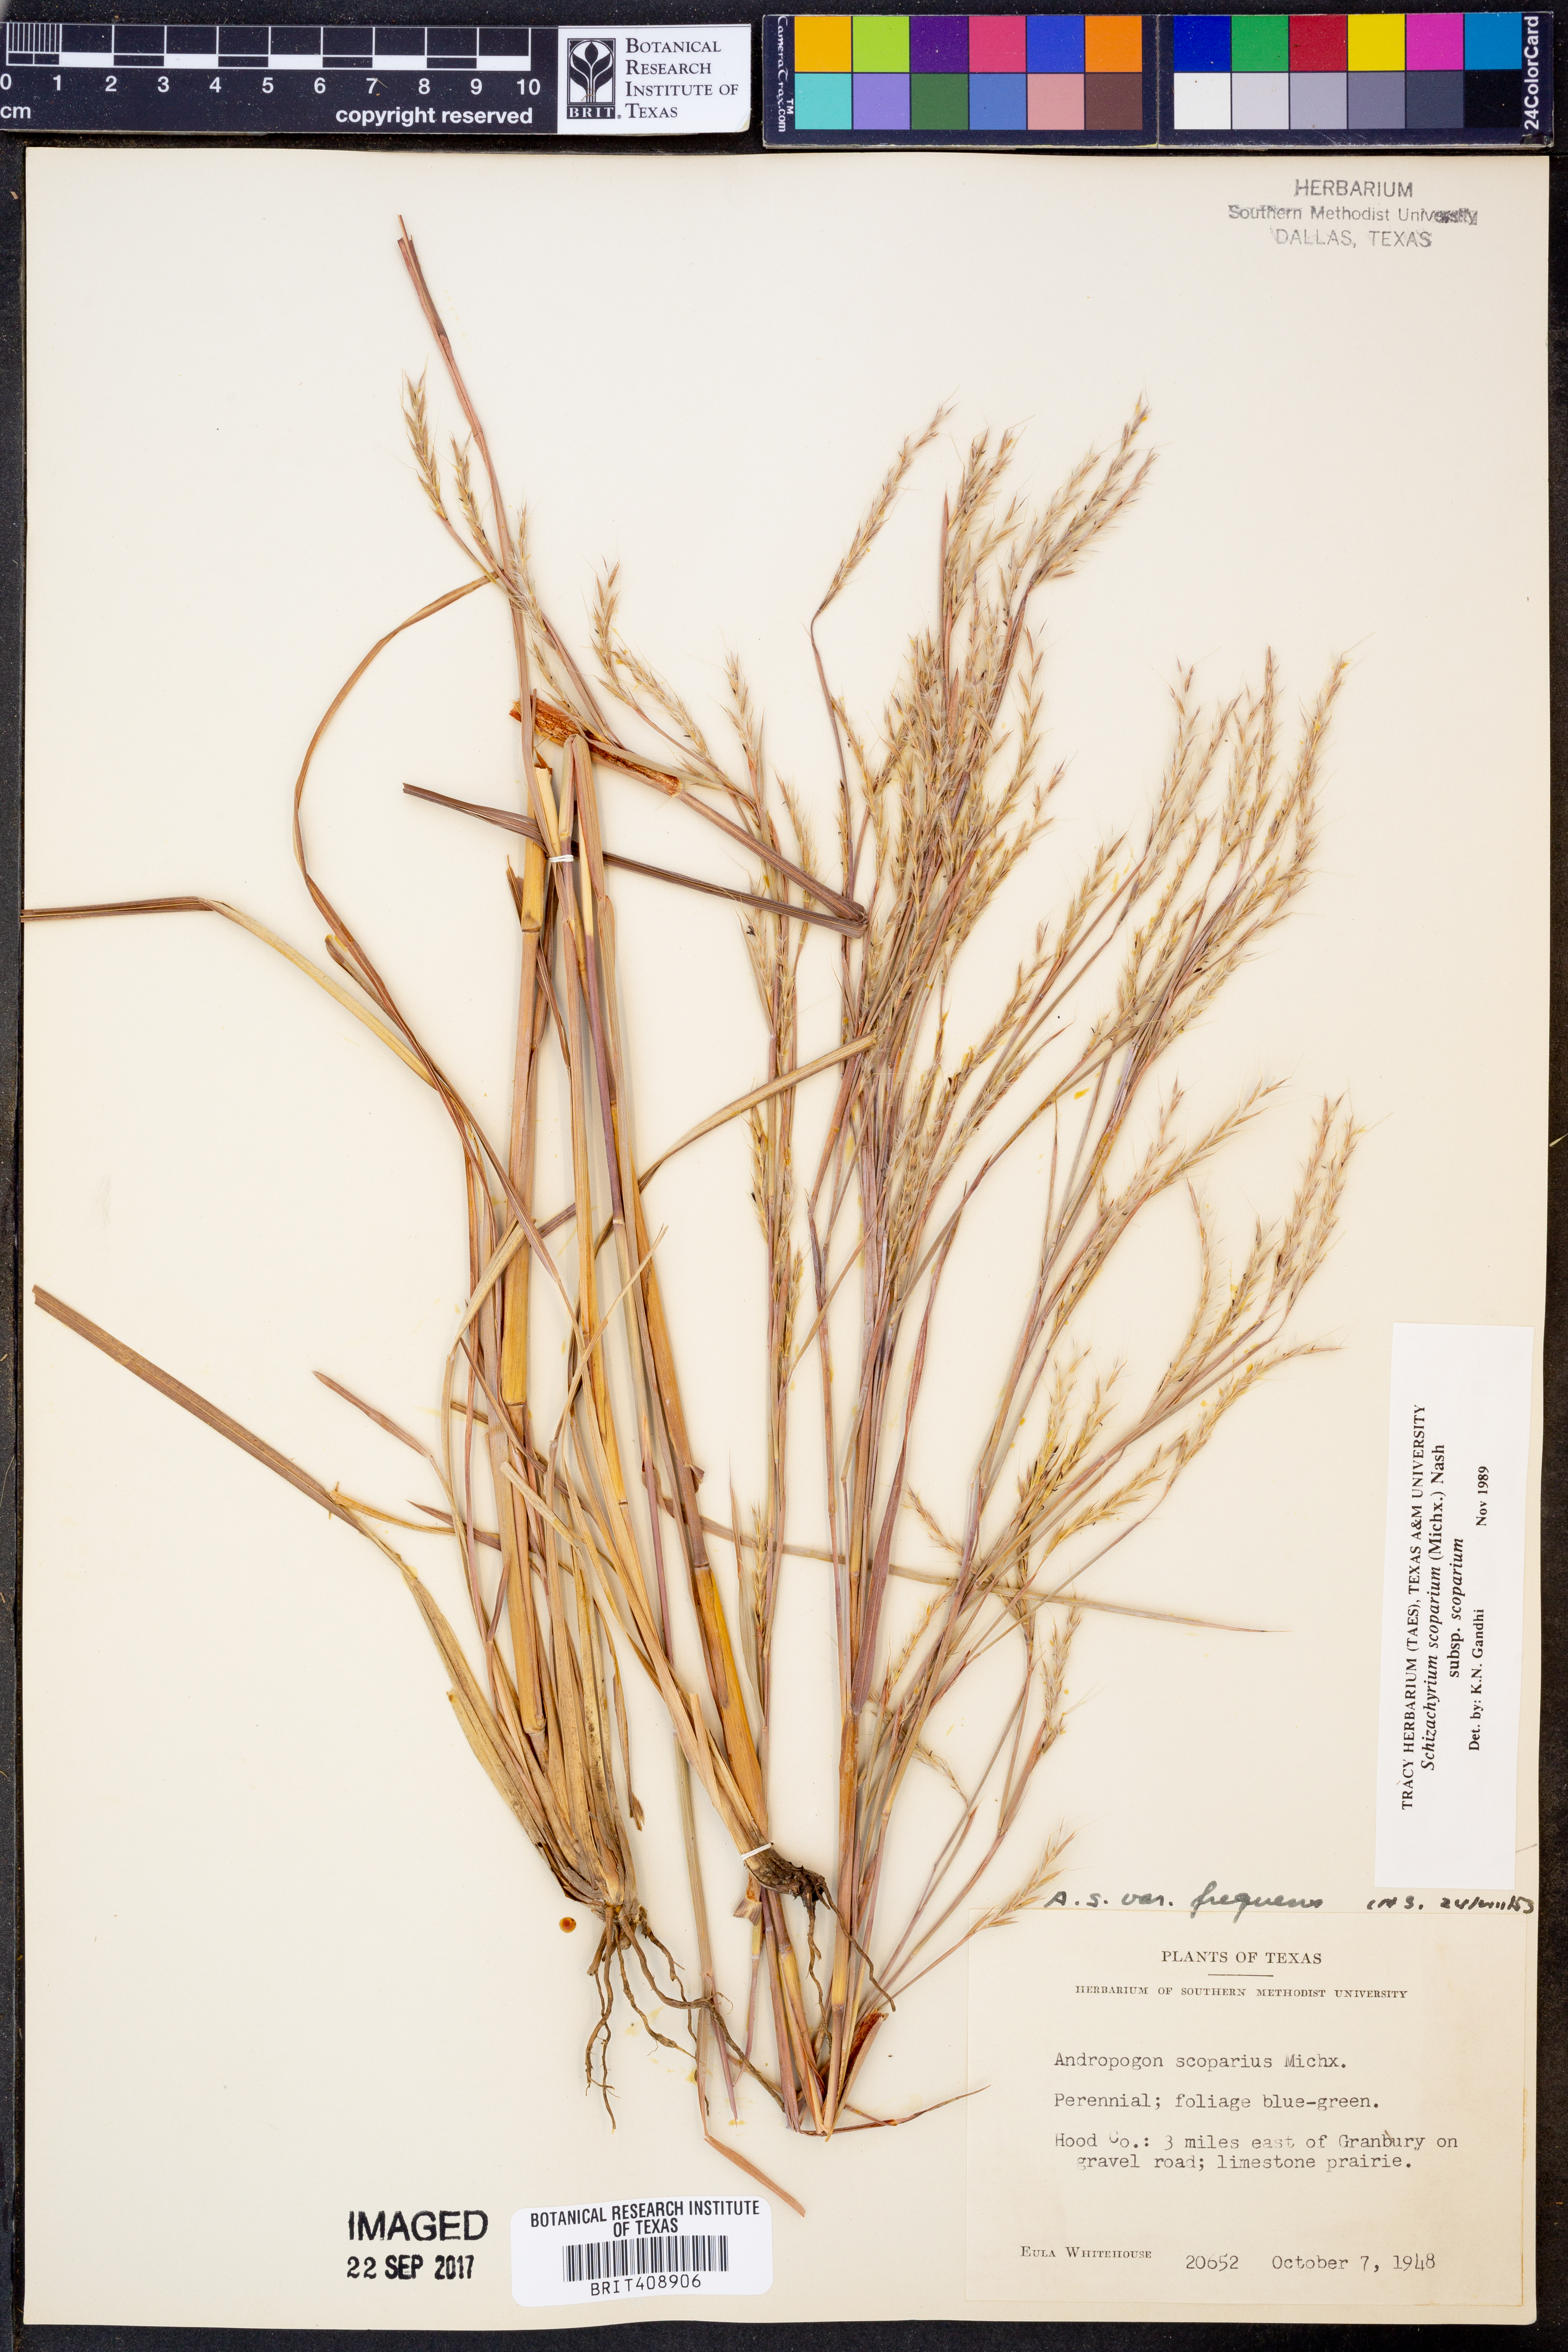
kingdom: Plantae
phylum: Tracheophyta
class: Liliopsida
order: Poales
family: Poaceae
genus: Schizachyrium
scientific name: Schizachyrium scoparium
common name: Little bluestem
